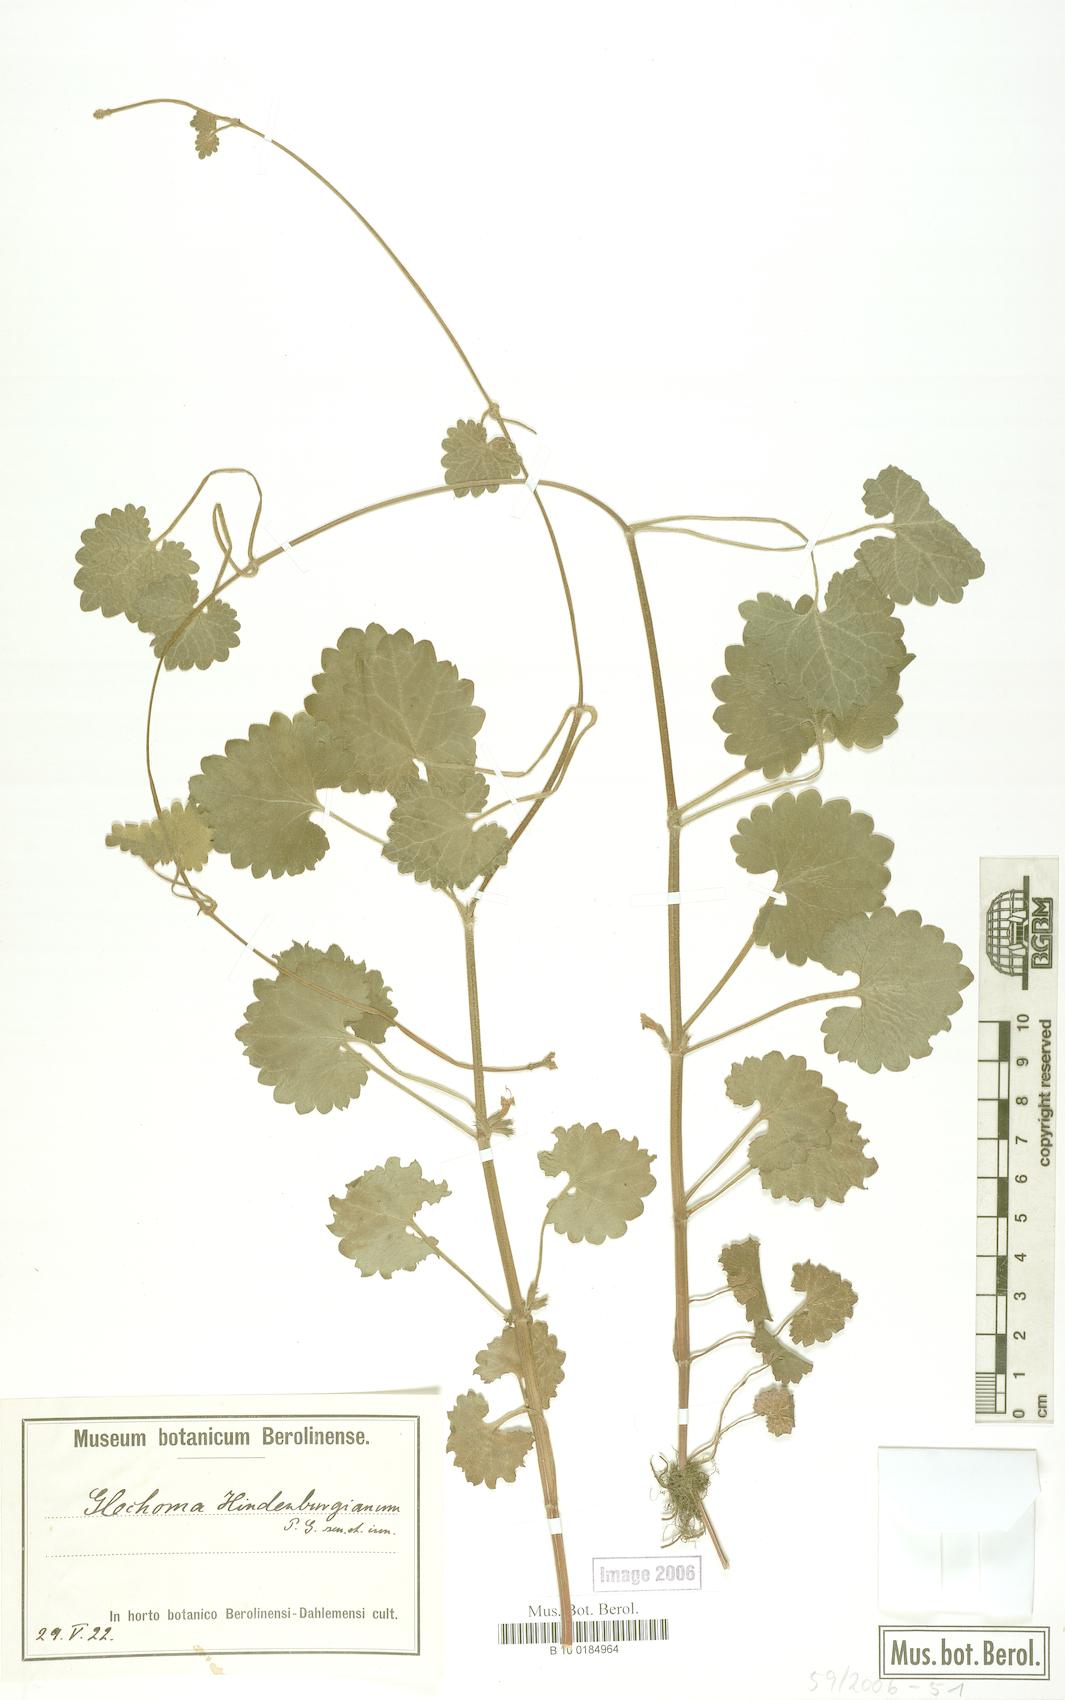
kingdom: Plantae
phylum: Tracheophyta
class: Magnoliopsida
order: Lamiales
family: Lamiaceae
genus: Glechoma
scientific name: Glechoma pannonica
